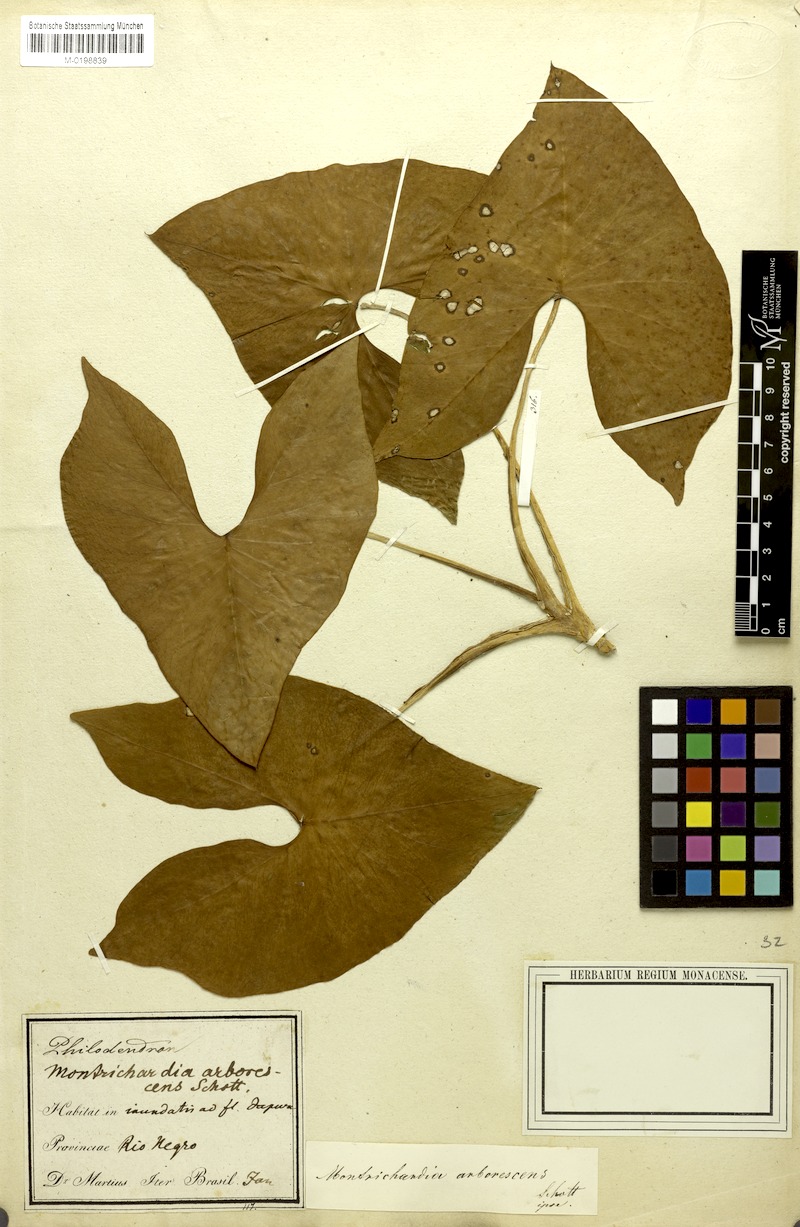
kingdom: Plantae
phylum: Tracheophyta
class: Liliopsida
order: Alismatales
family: Araceae
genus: Montrichardia
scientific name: Montrichardia arborescens
